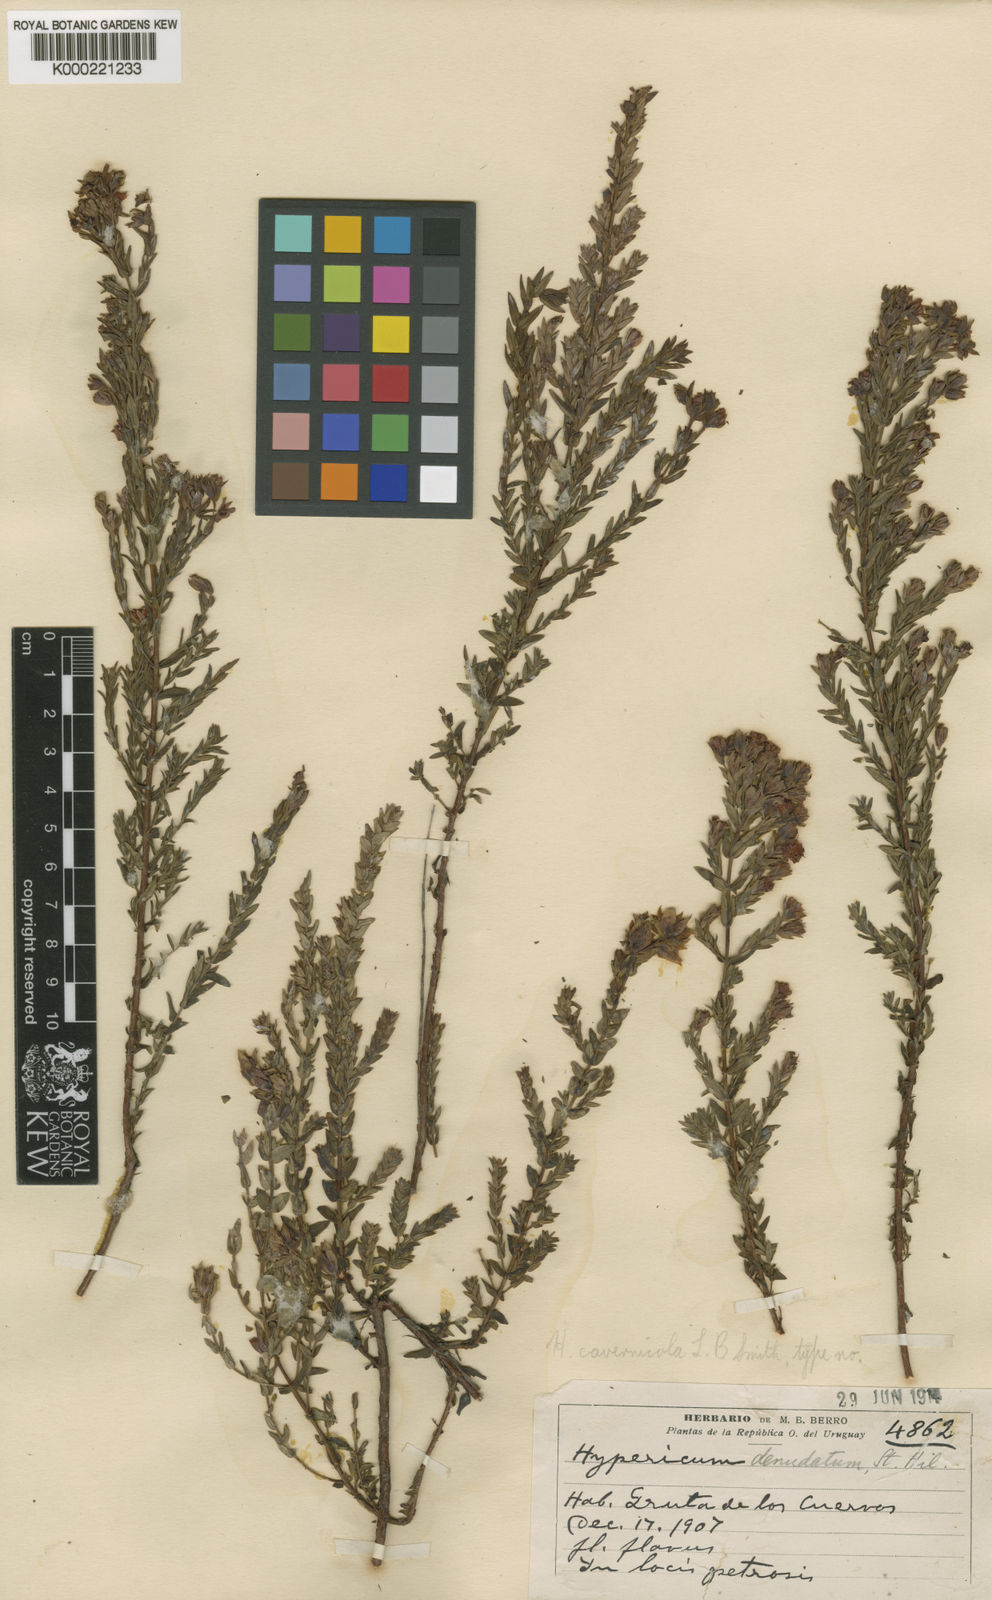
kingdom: Plantae
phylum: Tracheophyta
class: Magnoliopsida
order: Malpighiales
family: Hypericaceae
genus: Hypericum
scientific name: Hypericum cavernicola
